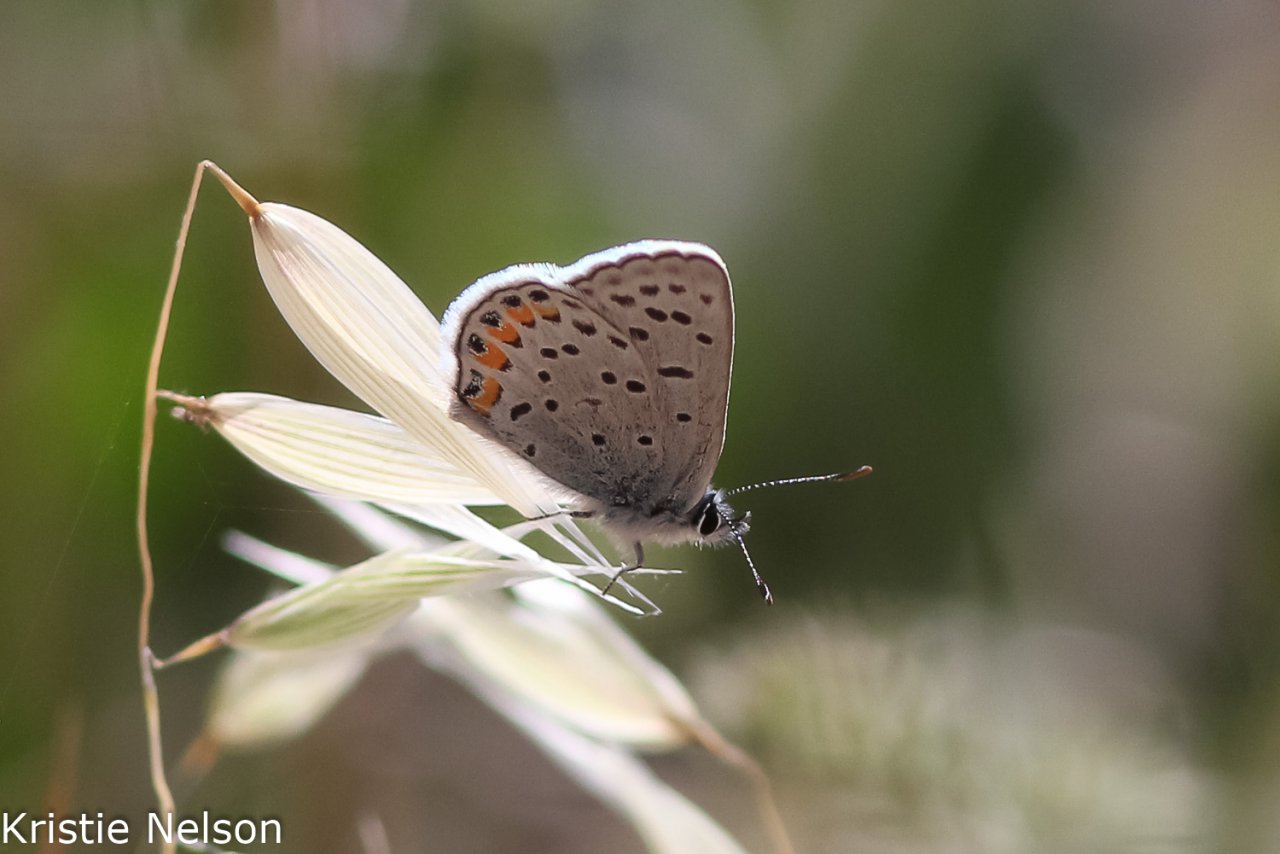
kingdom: Animalia
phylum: Arthropoda
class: Insecta
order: Lepidoptera
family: Lycaenidae
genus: Plebejus
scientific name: Plebejus
